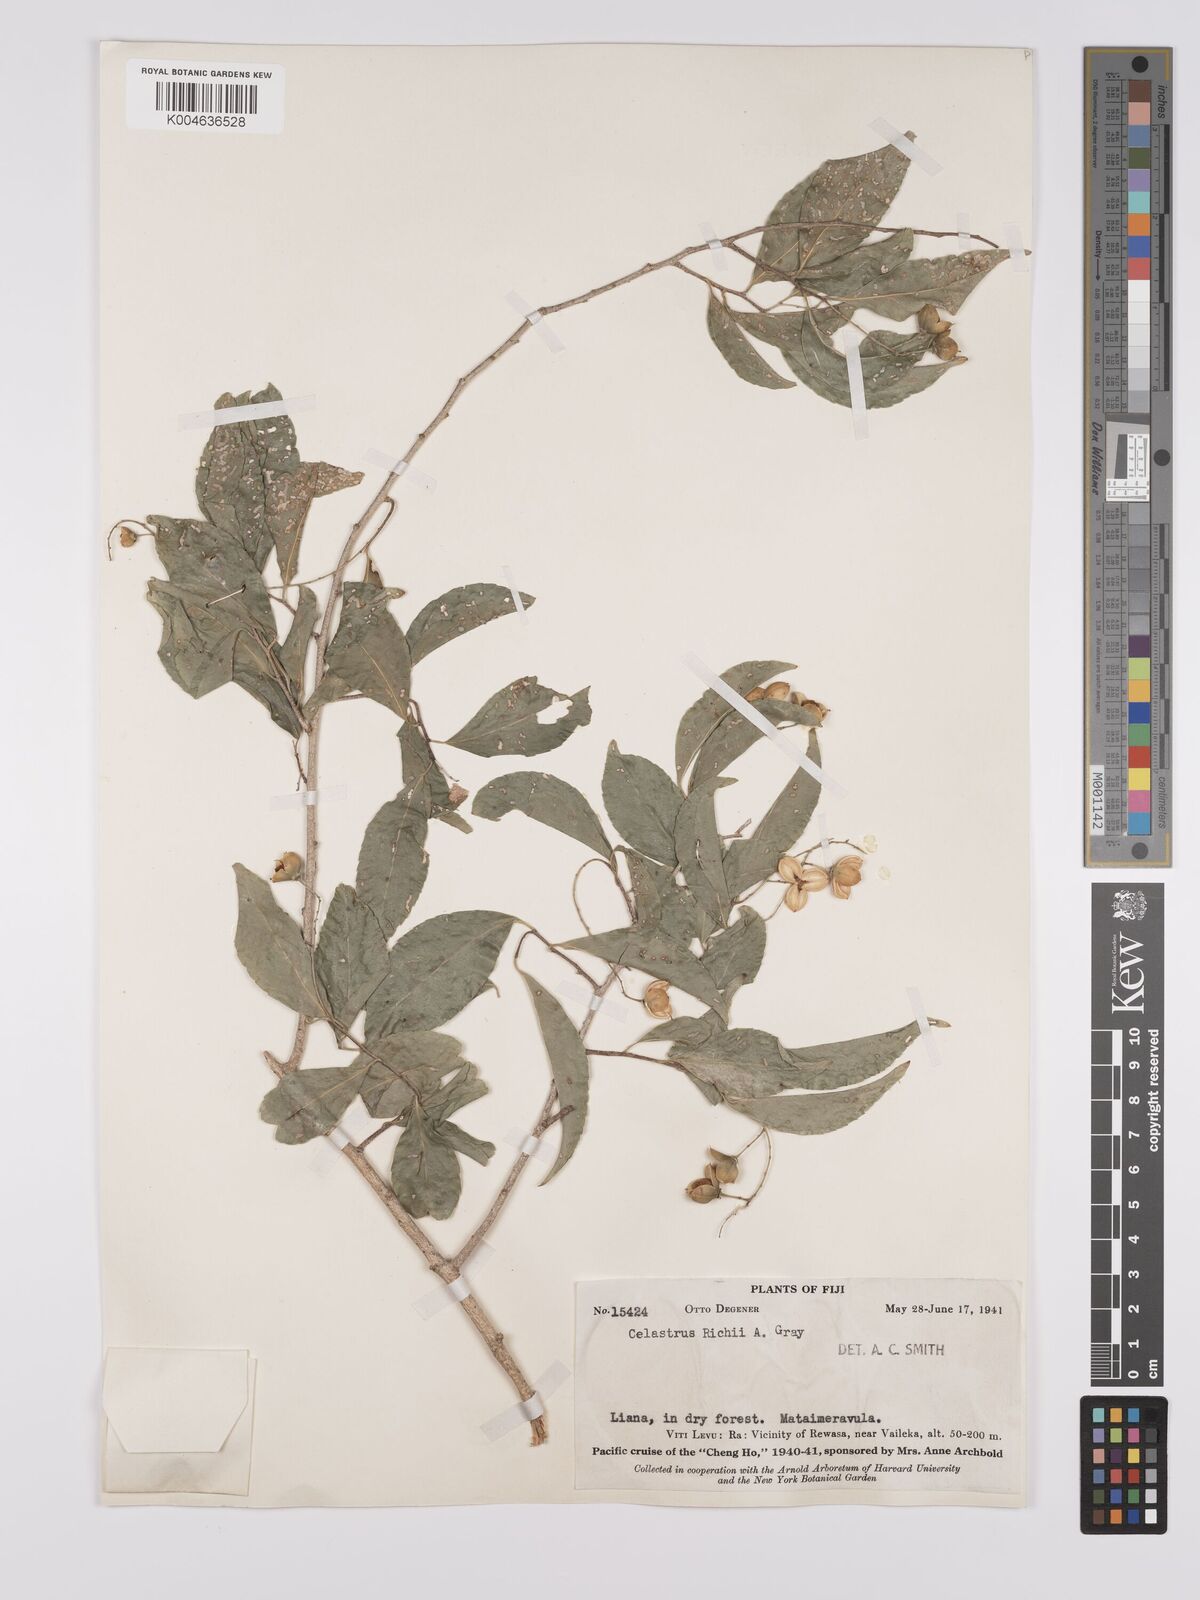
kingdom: Plantae
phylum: Tracheophyta
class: Magnoliopsida
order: Celastrales
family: Celastraceae
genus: Celastrus
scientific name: Celastrus richii
